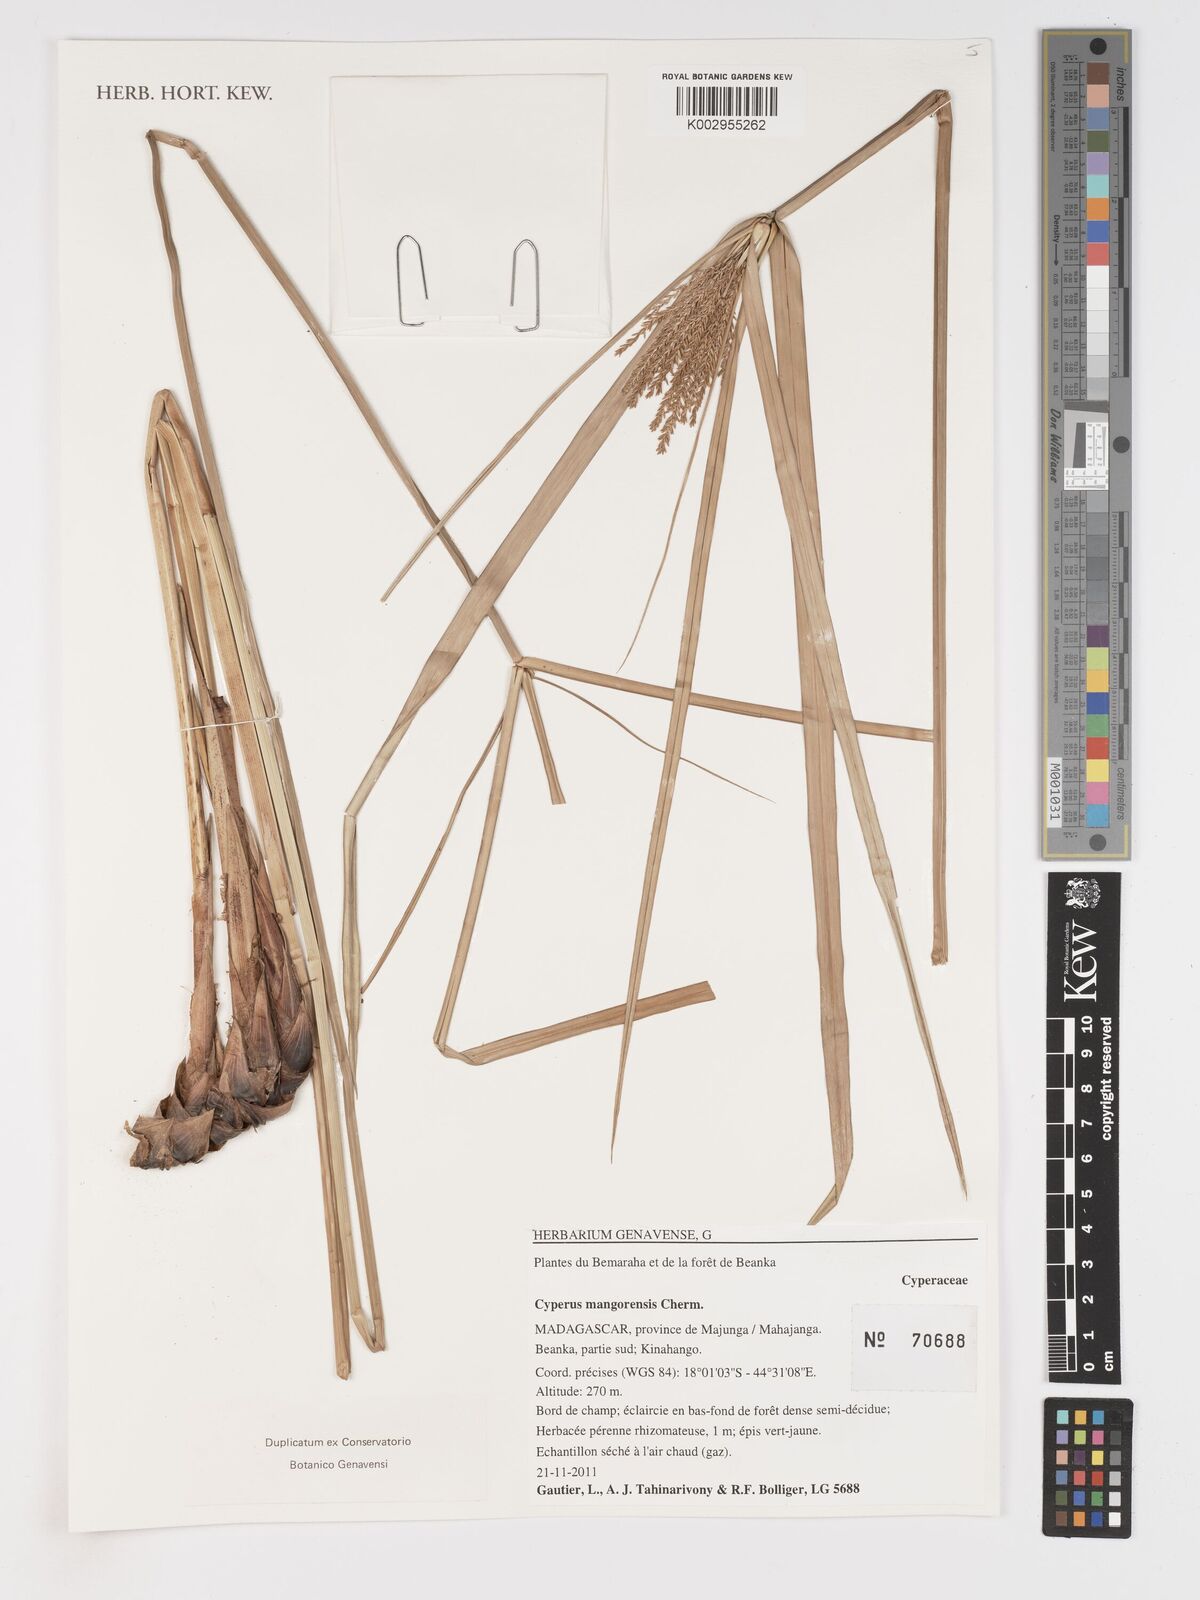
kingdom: Plantae
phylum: Tracheophyta
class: Liliopsida
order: Poales
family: Cyperaceae
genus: Cyperus
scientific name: Cyperus mangorensis
